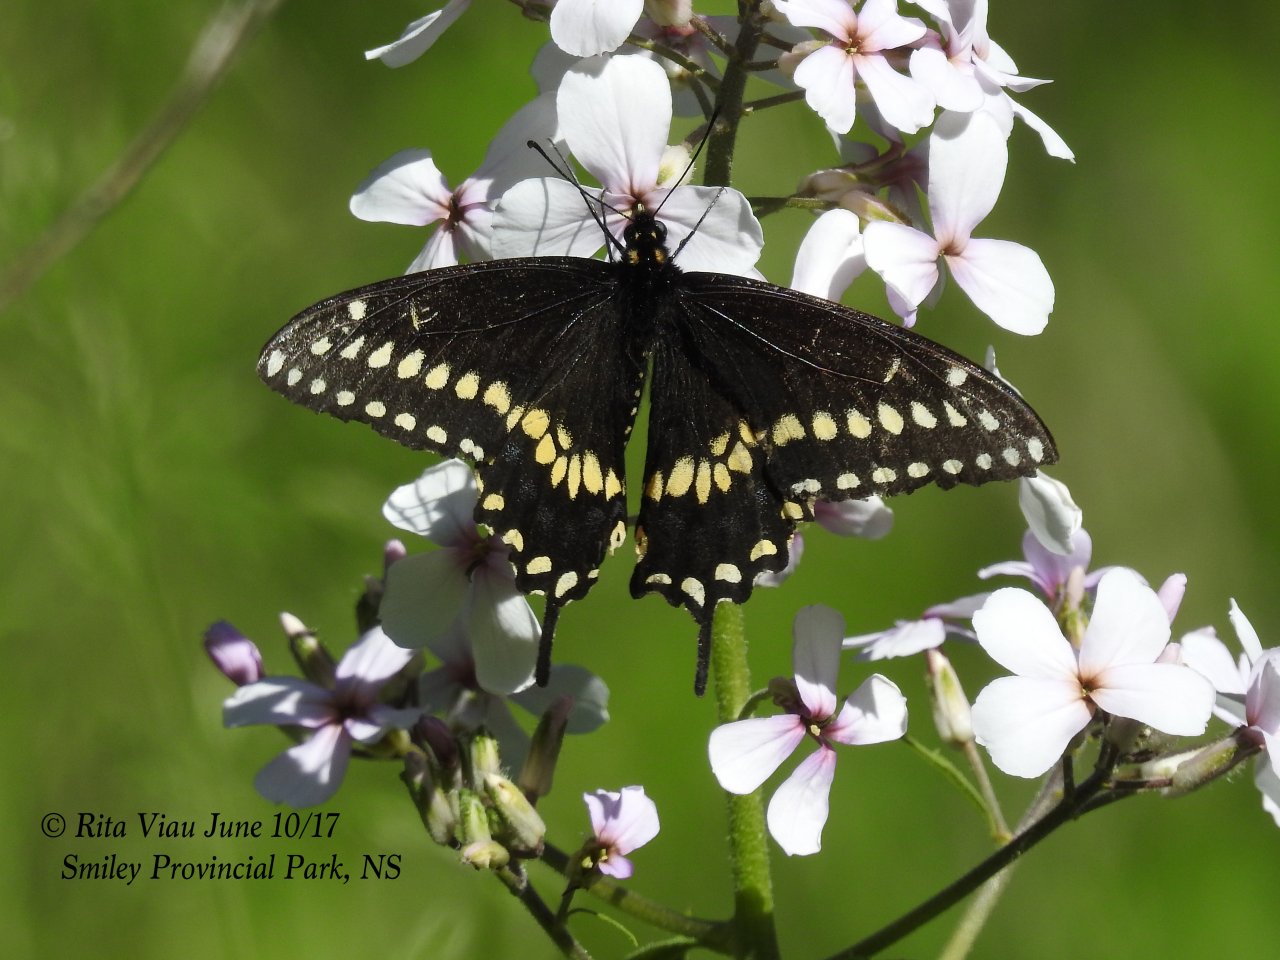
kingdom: Animalia
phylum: Arthropoda
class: Insecta
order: Lepidoptera
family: Papilionidae
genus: Papilio
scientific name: Papilio polyxenes
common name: Black Swallowtail
